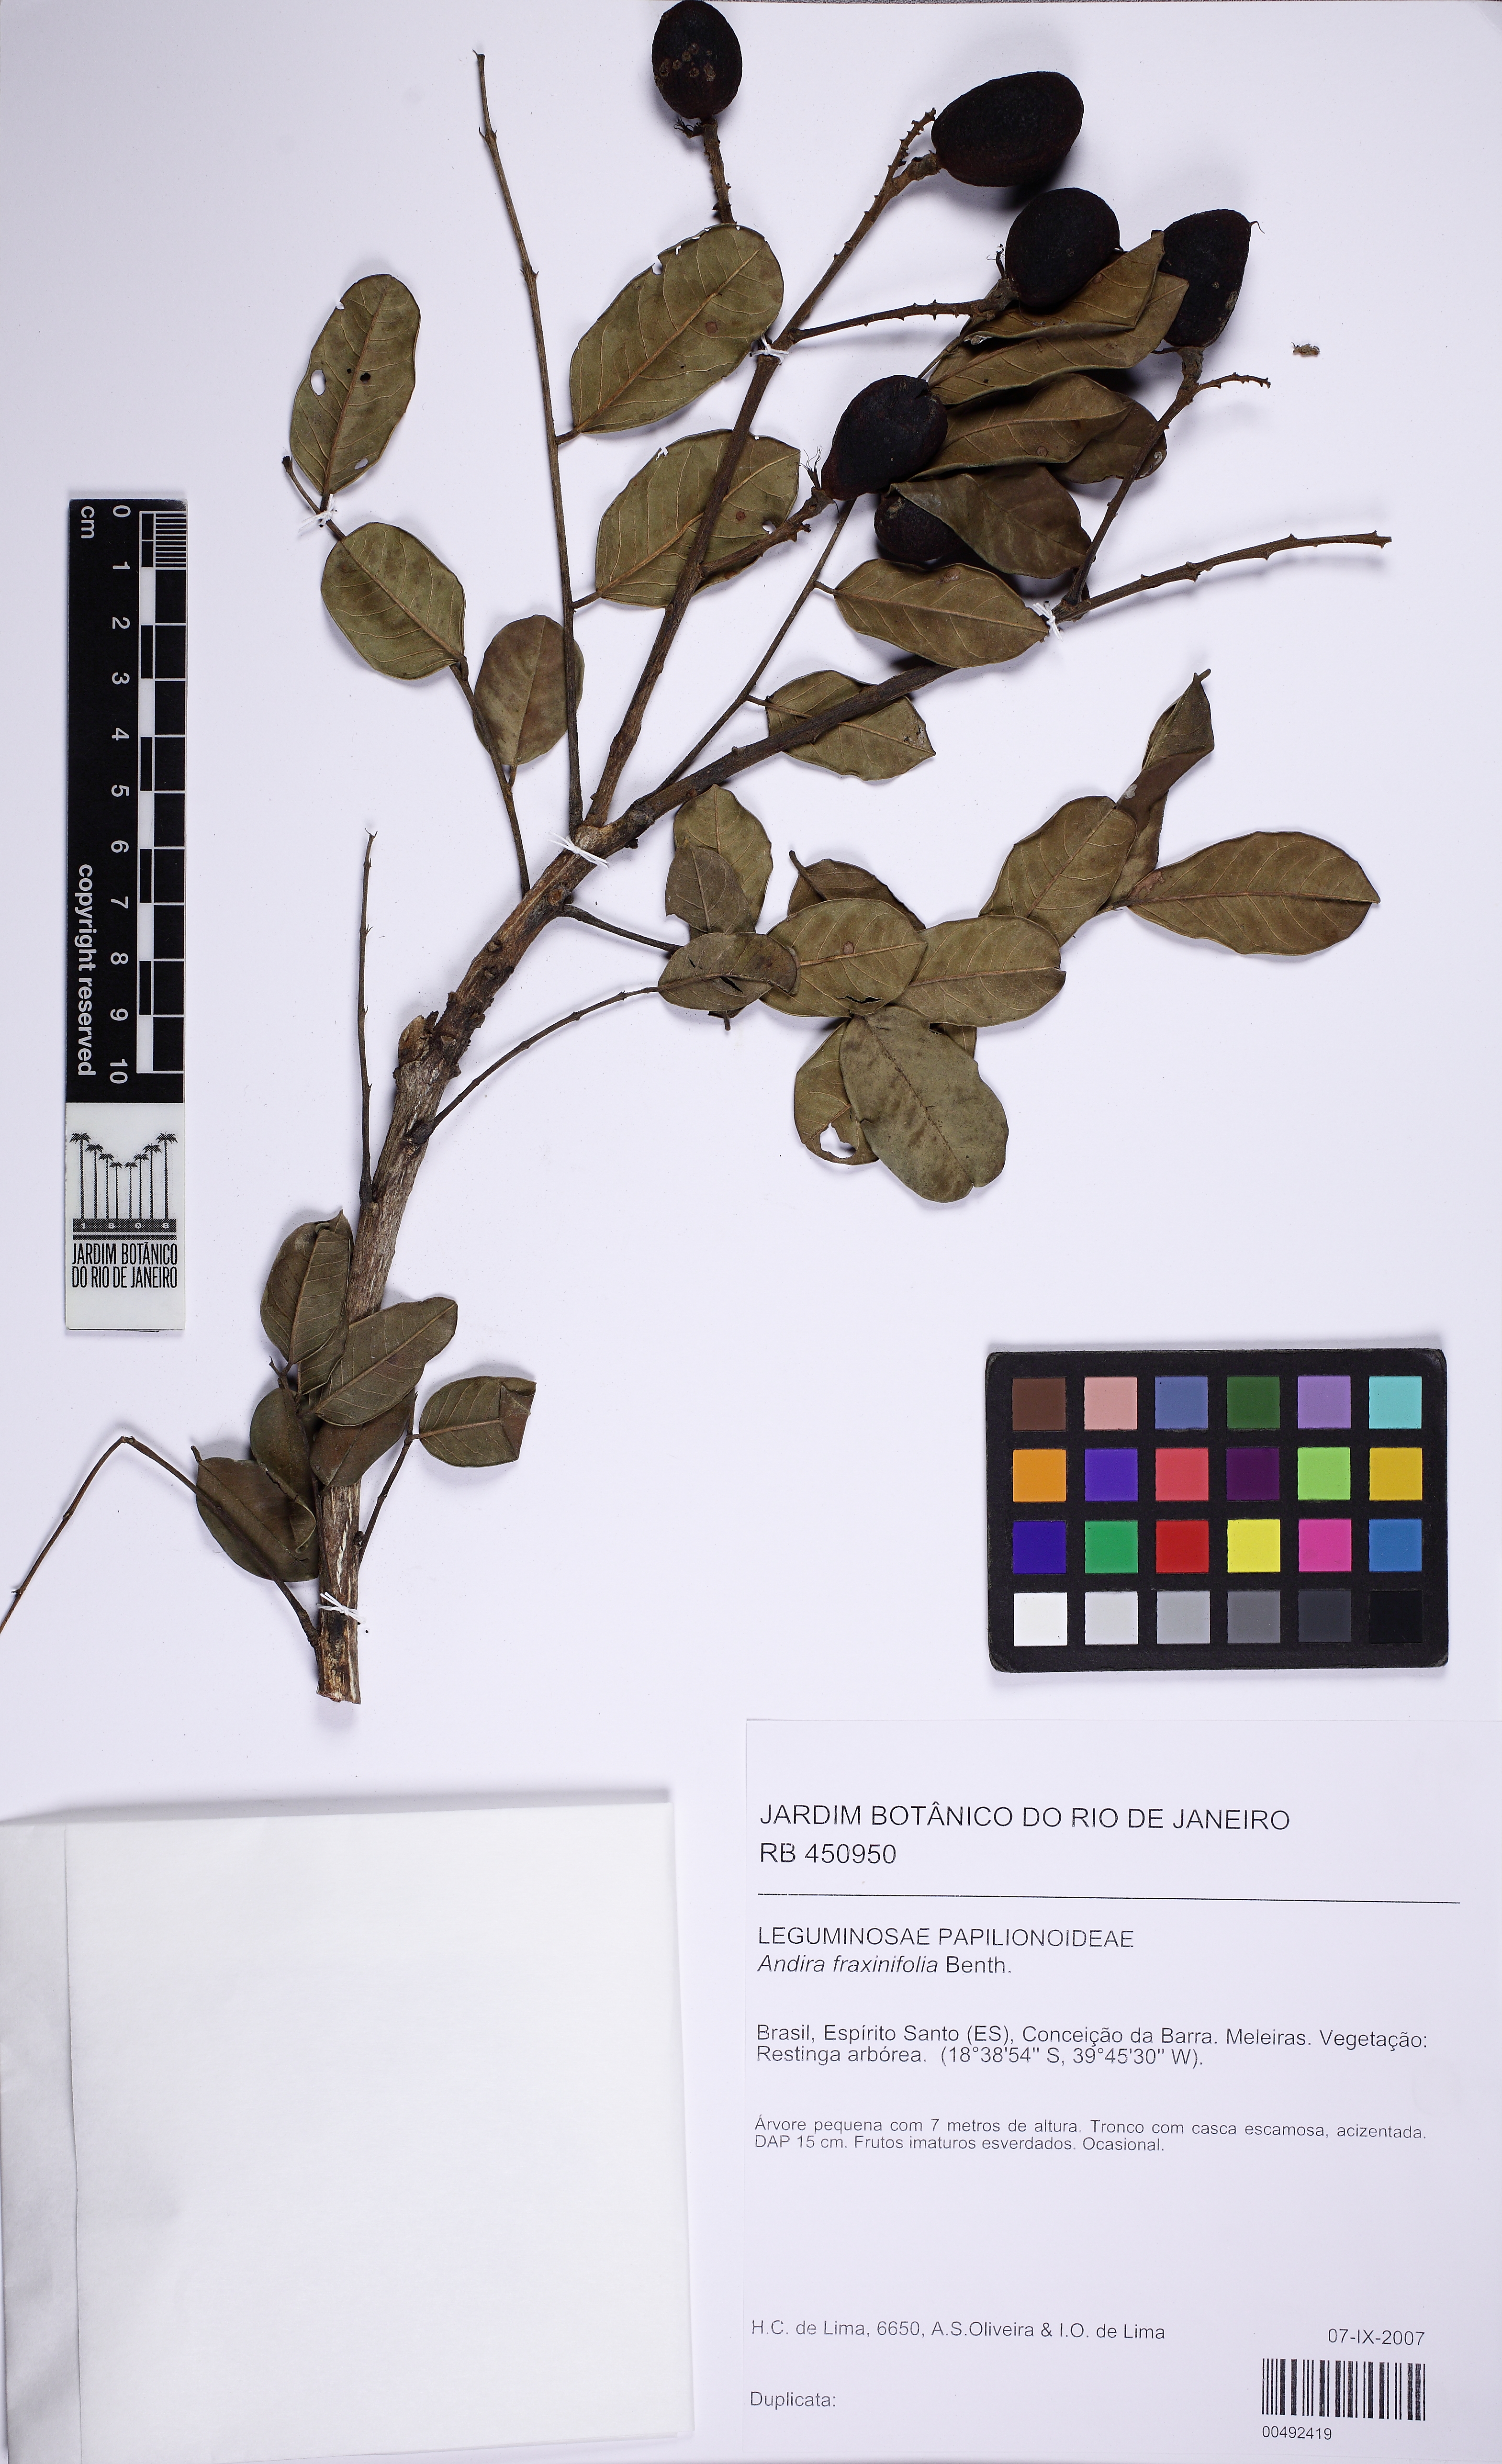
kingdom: Plantae
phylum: Tracheophyta
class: Magnoliopsida
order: Fabales
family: Fabaceae
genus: Andira
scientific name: Andira fraxinifolia
